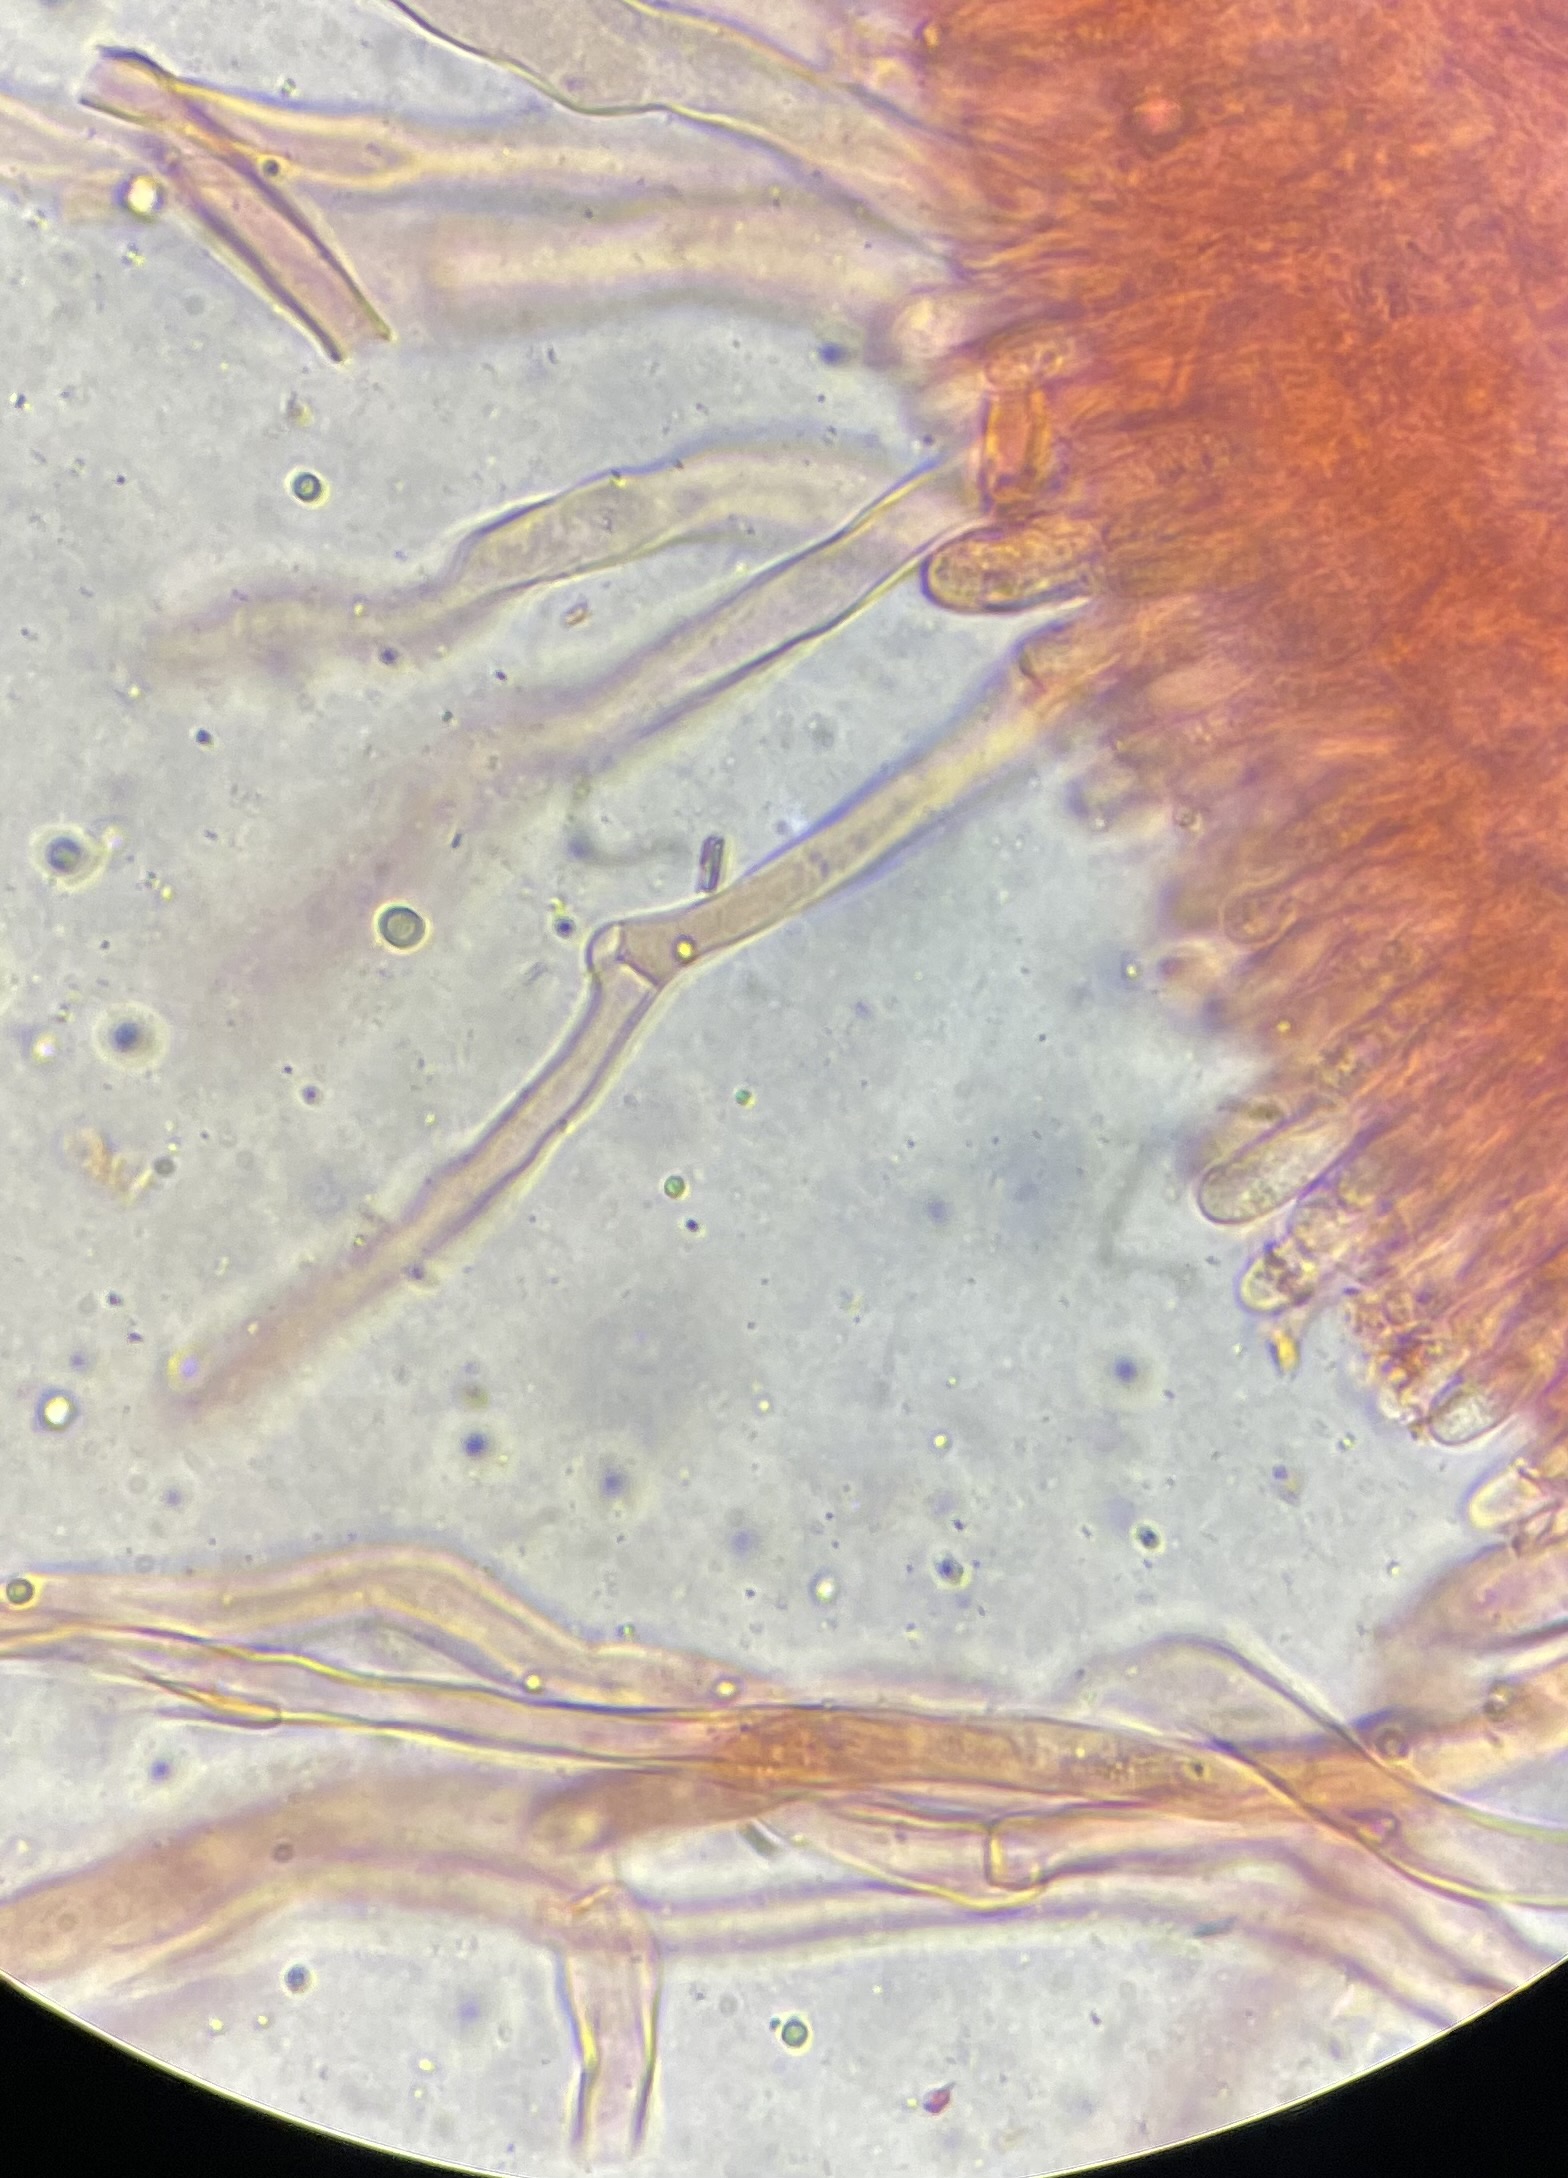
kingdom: Fungi
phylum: Basidiomycota
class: Agaricomycetes
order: Agaricales
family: Pleurotaceae
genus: Pleurotus
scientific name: Pleurotus
